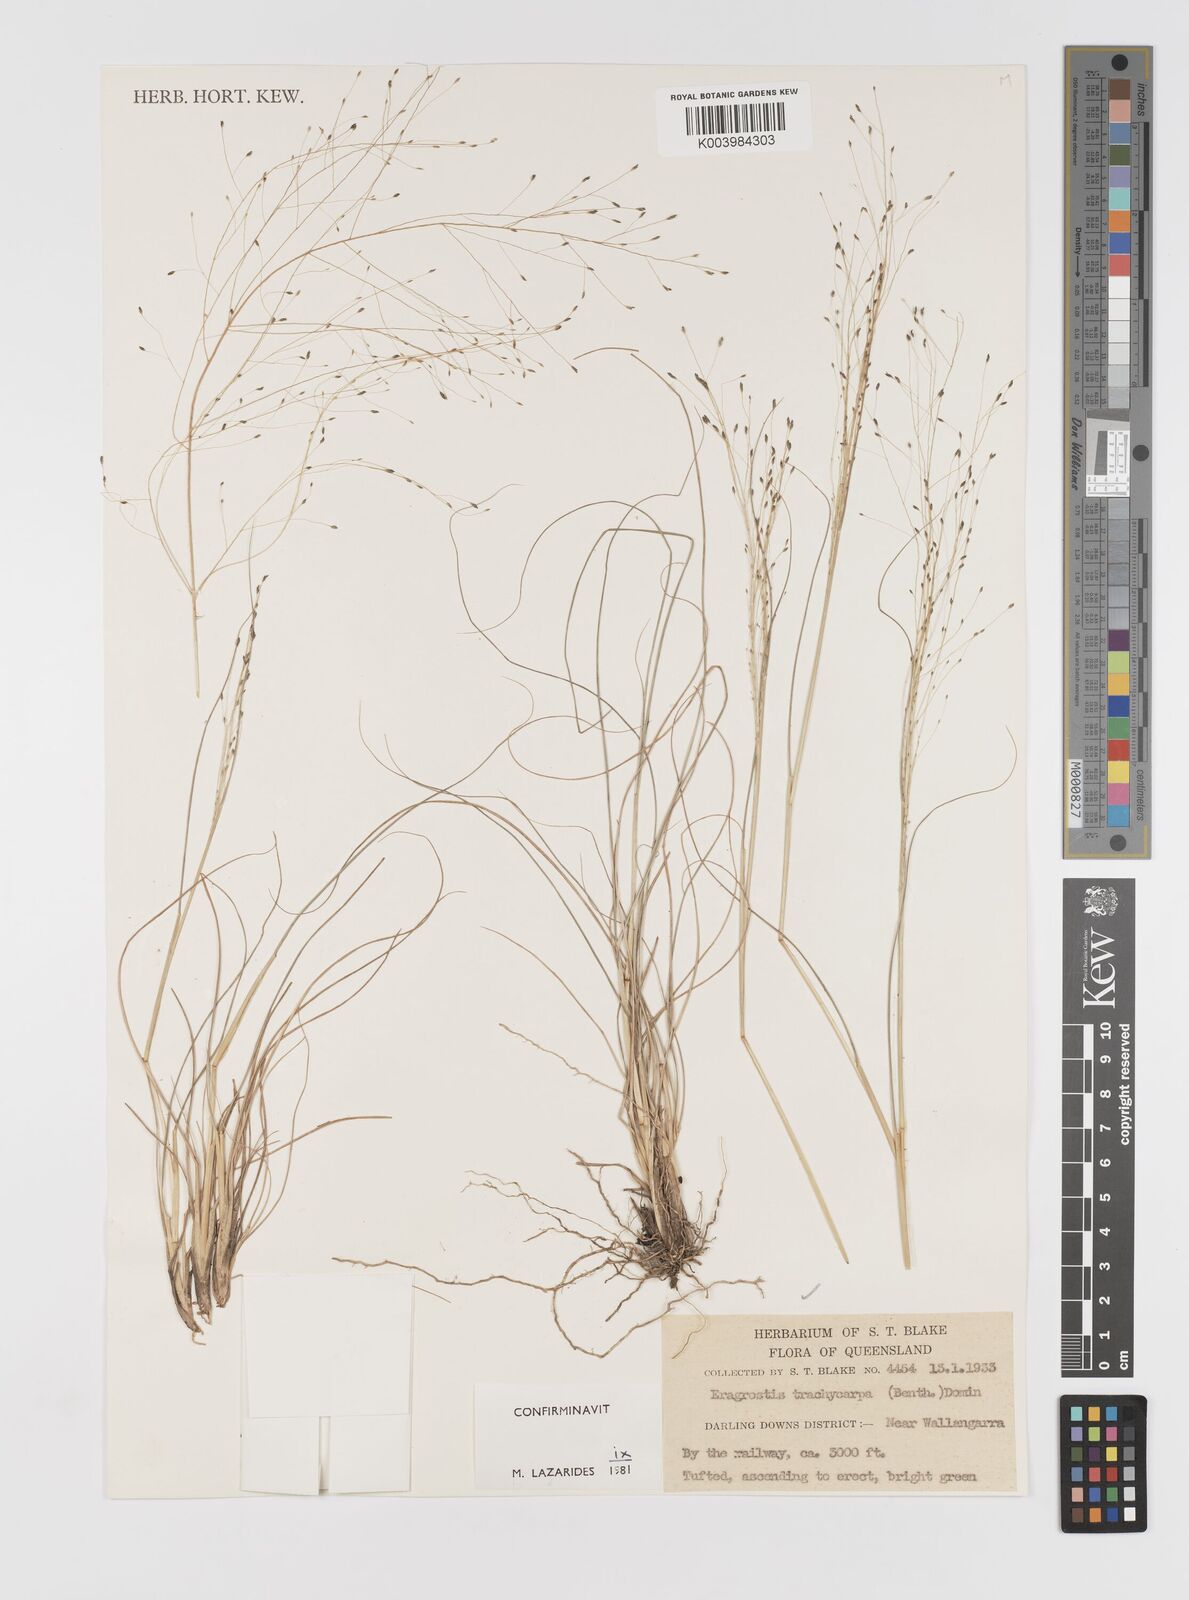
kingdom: Plantae
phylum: Tracheophyta
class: Liliopsida
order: Poales
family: Poaceae
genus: Eragrostis
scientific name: Eragrostis trachycarpa
